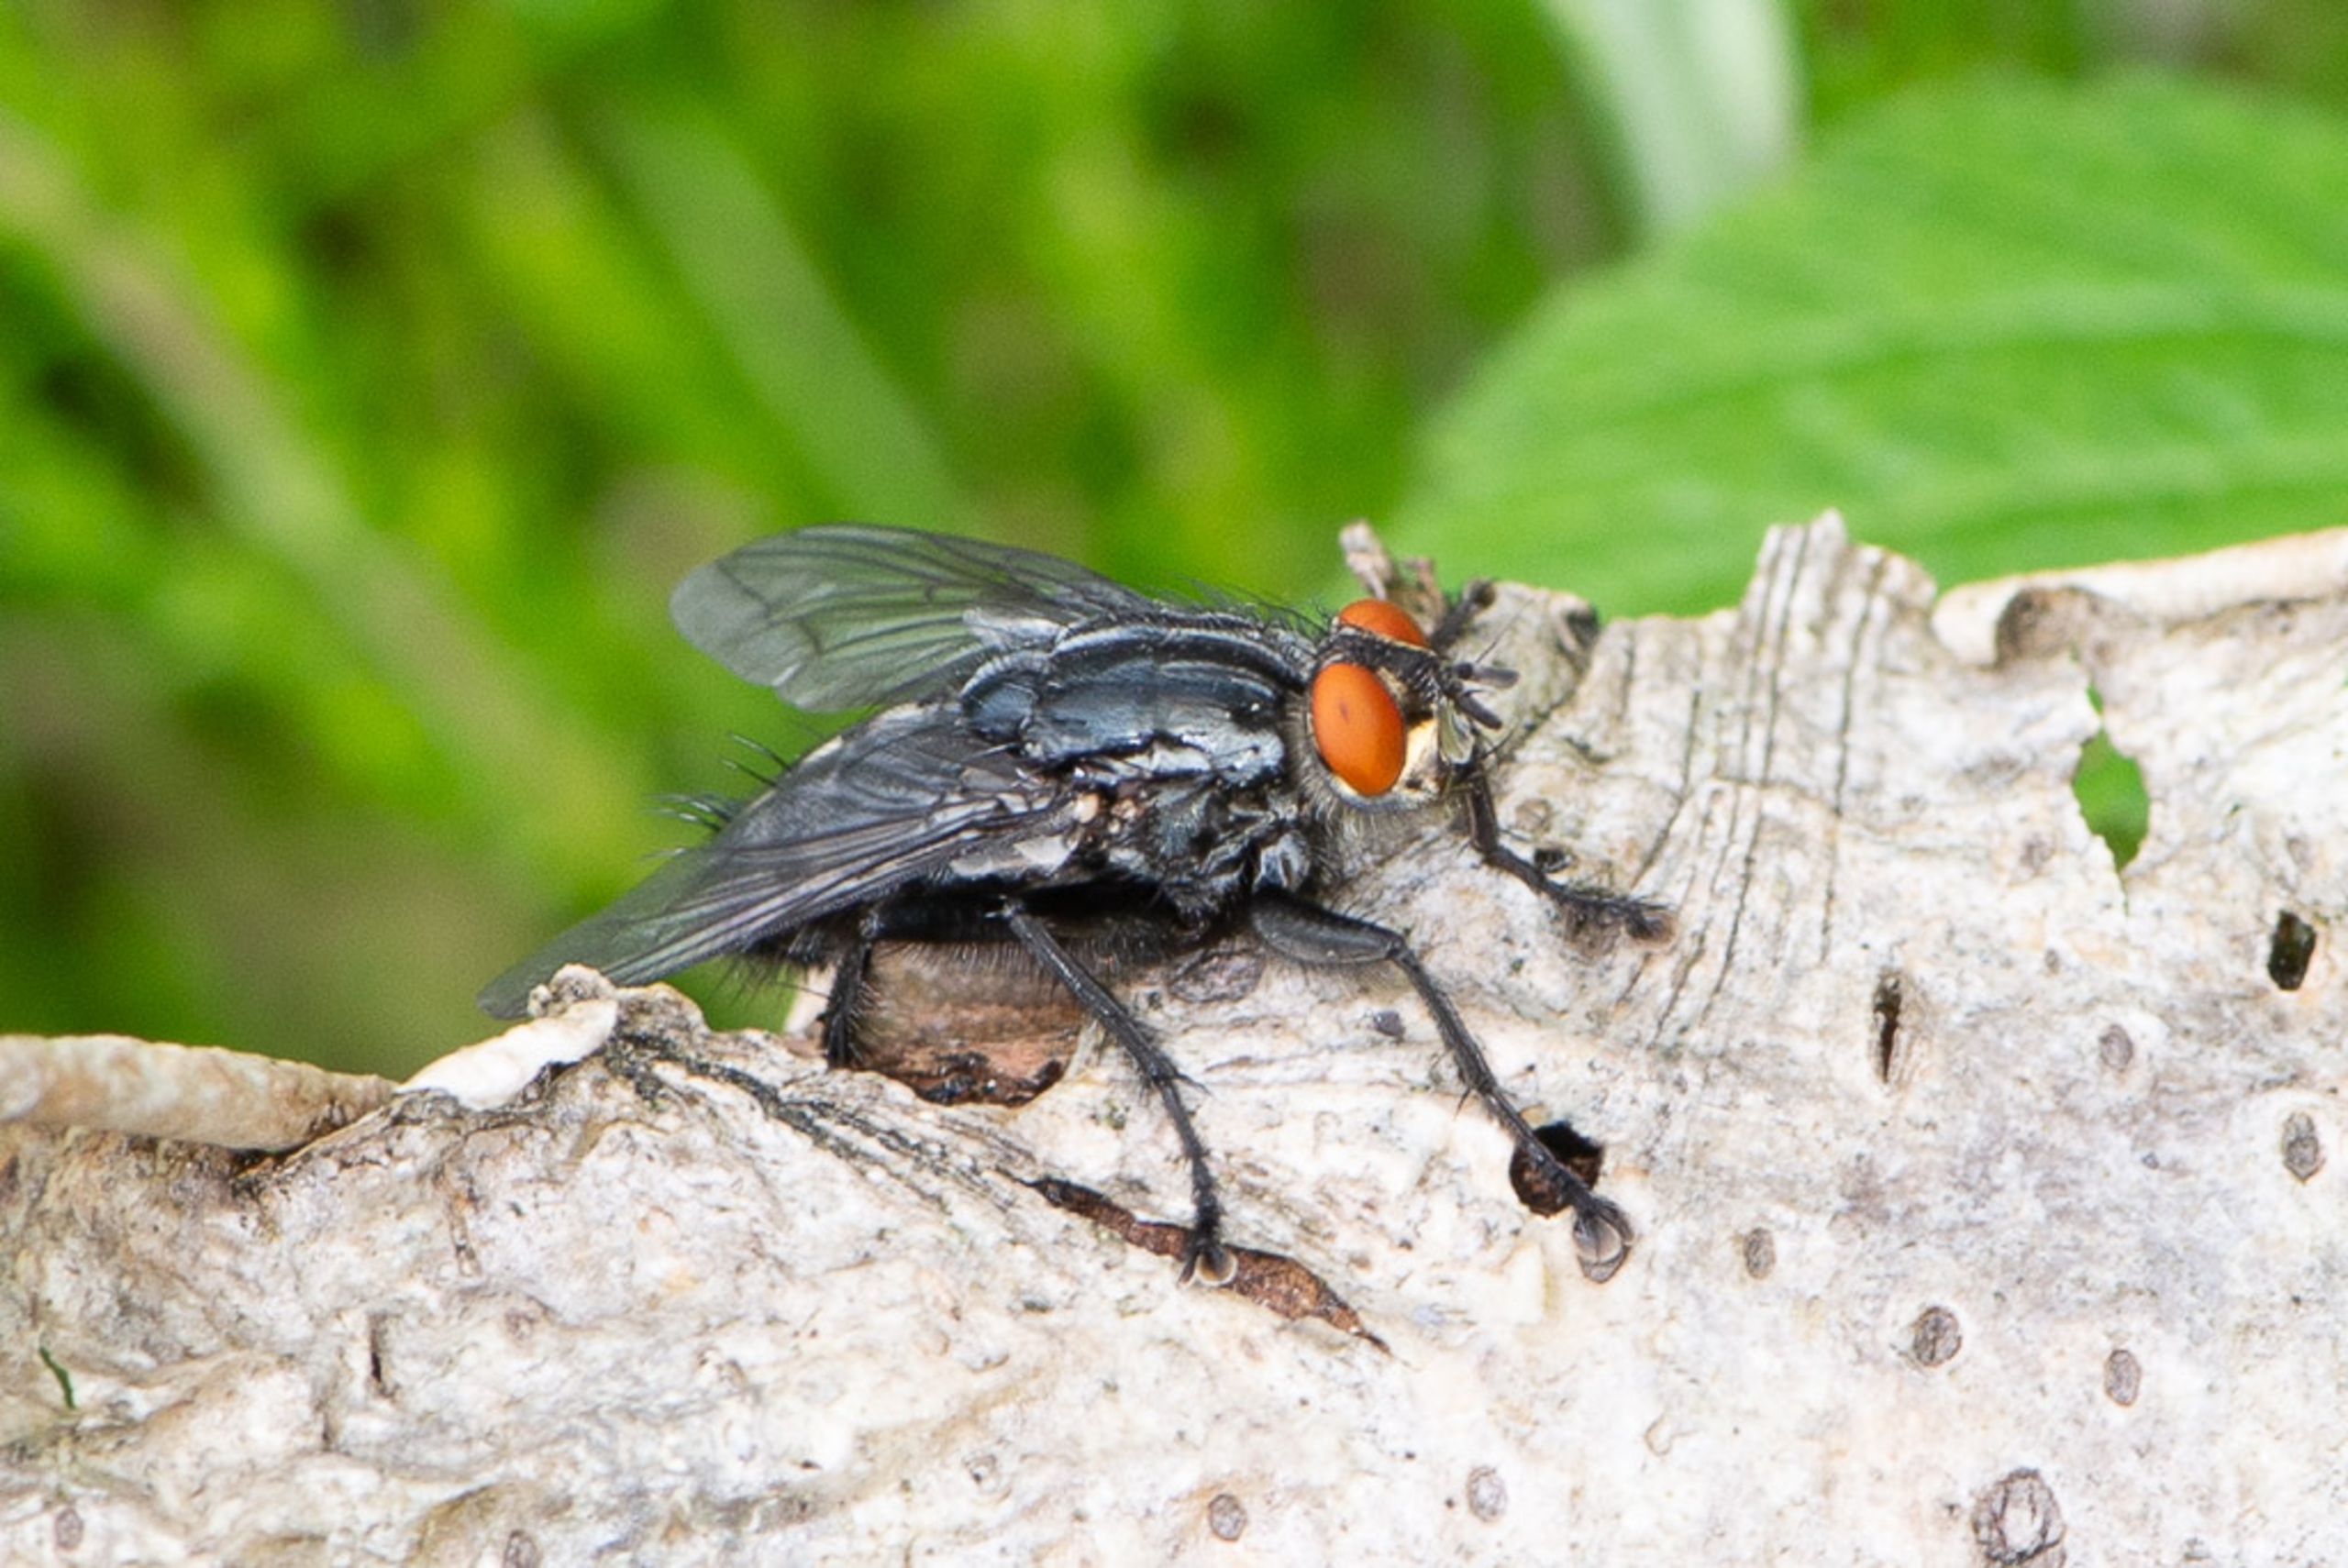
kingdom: Animalia
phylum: Arthropoda
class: Insecta
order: Diptera
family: Sarcophagidae
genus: Sarcophaga
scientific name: Sarcophaga
